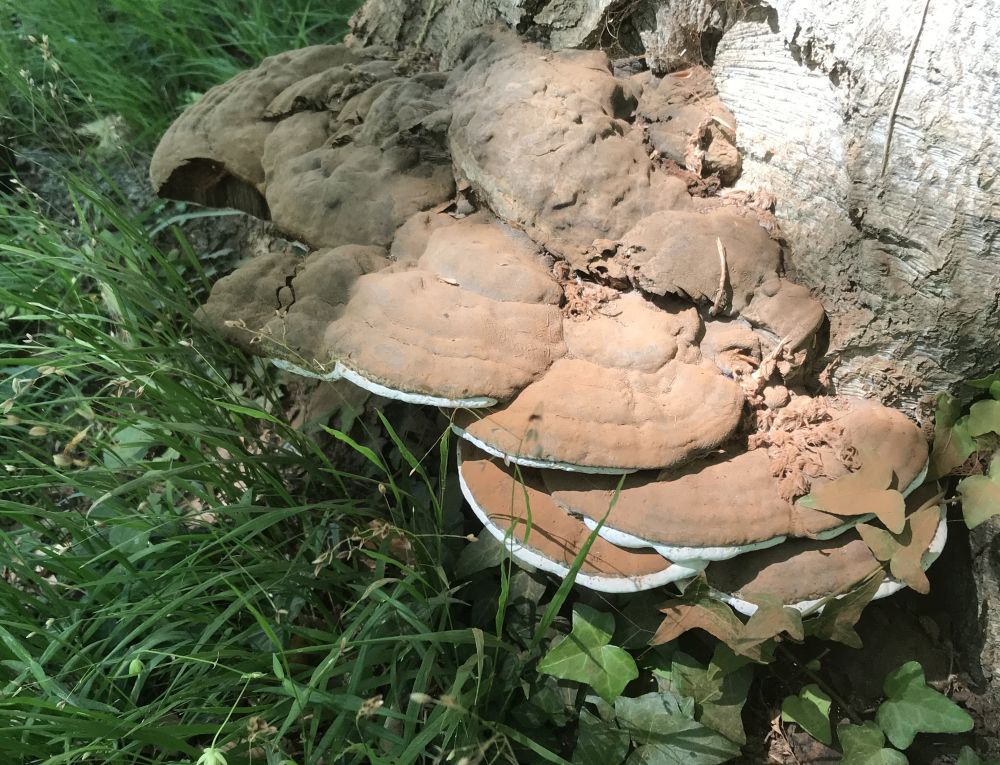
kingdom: Fungi
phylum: Basidiomycota
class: Agaricomycetes
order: Polyporales
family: Polyporaceae
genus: Ganoderma
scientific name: Ganoderma pfeifferi
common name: kobberrød lakporesvamp
